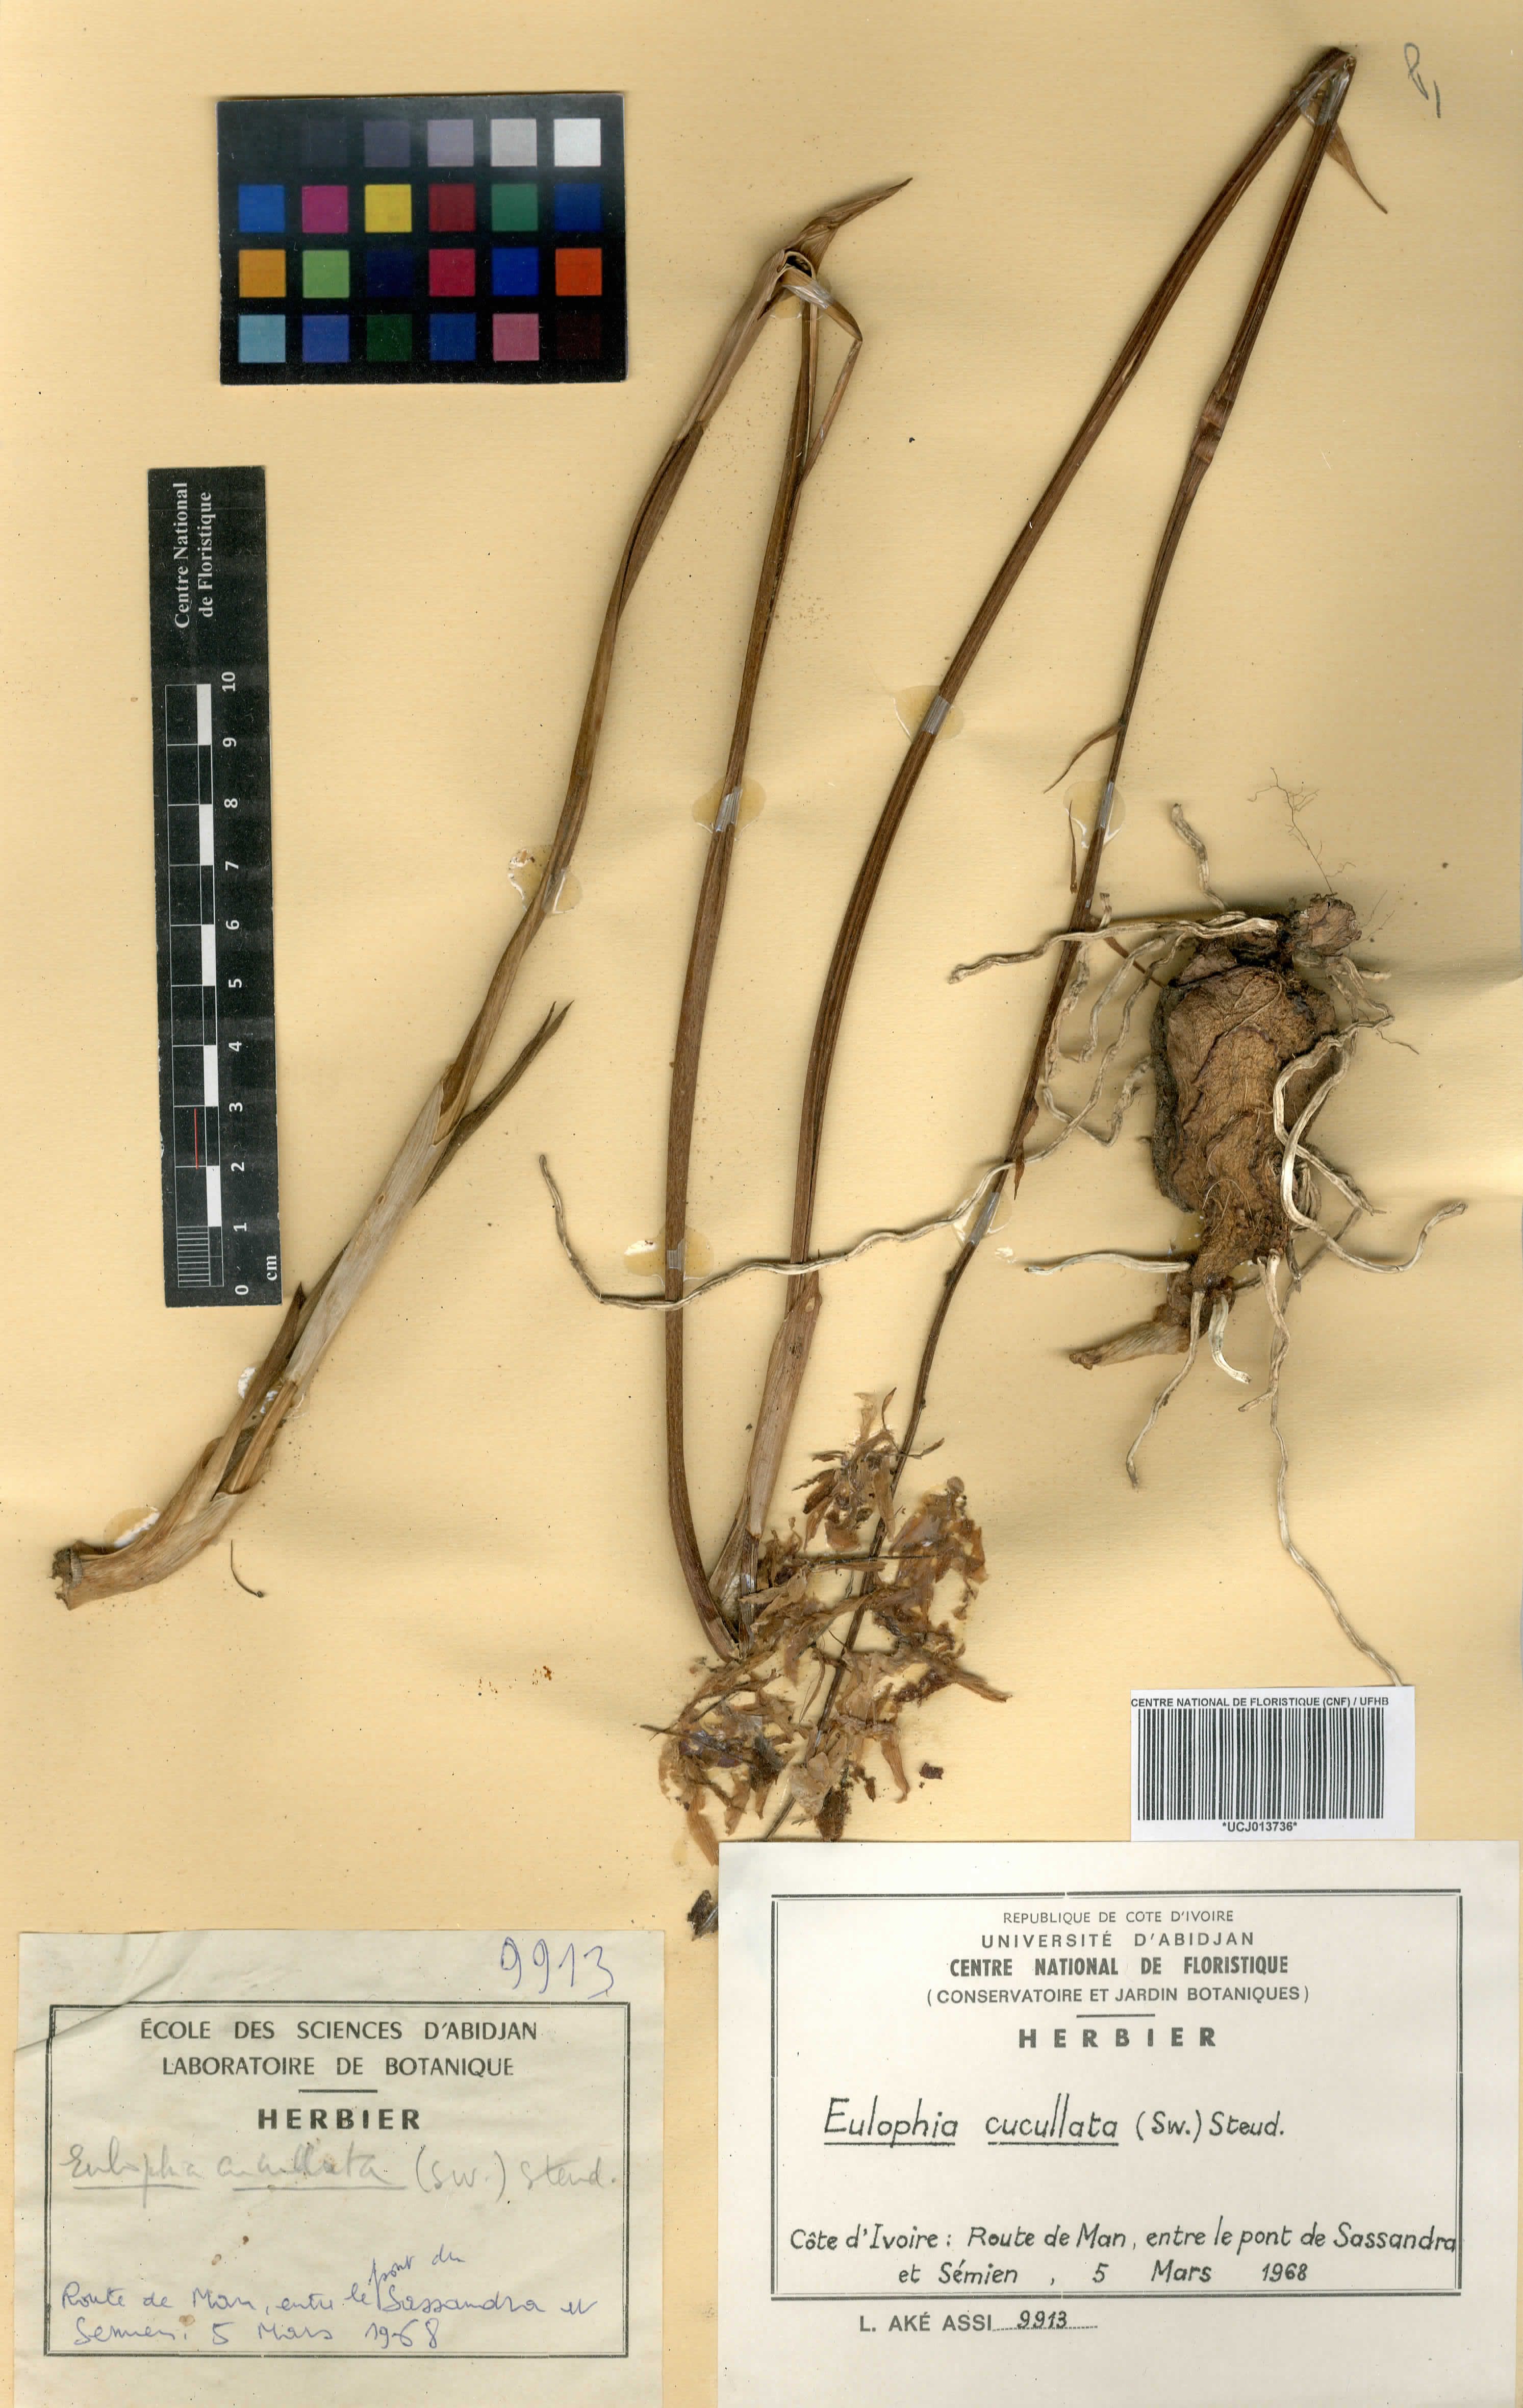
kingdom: Plantae
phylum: Tracheophyta
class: Liliopsida
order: Asparagales
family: Orchidaceae
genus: Eulophia
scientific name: Eulophia cucullata
